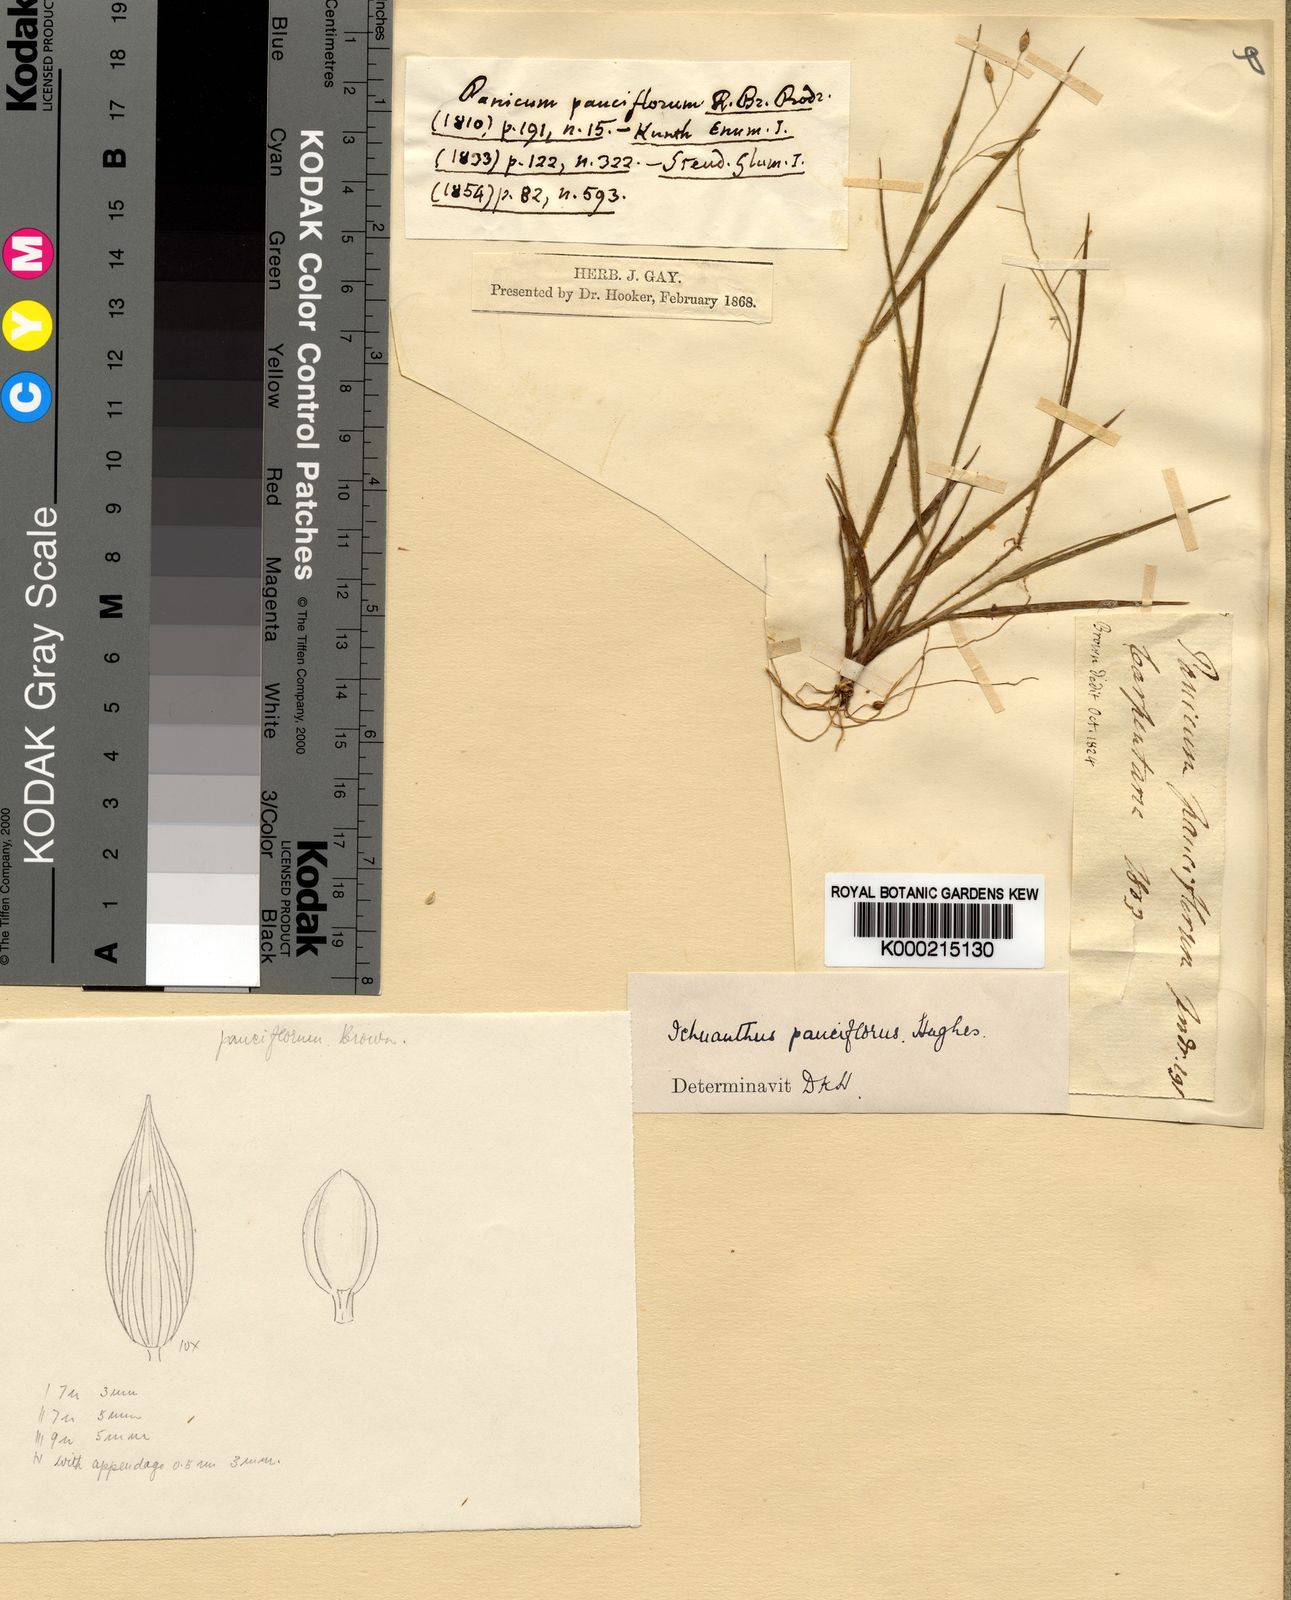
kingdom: Plantae
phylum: Tracheophyta
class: Liliopsida
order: Poales
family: Poaceae
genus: Panicum
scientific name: Panicum pauciflorum
